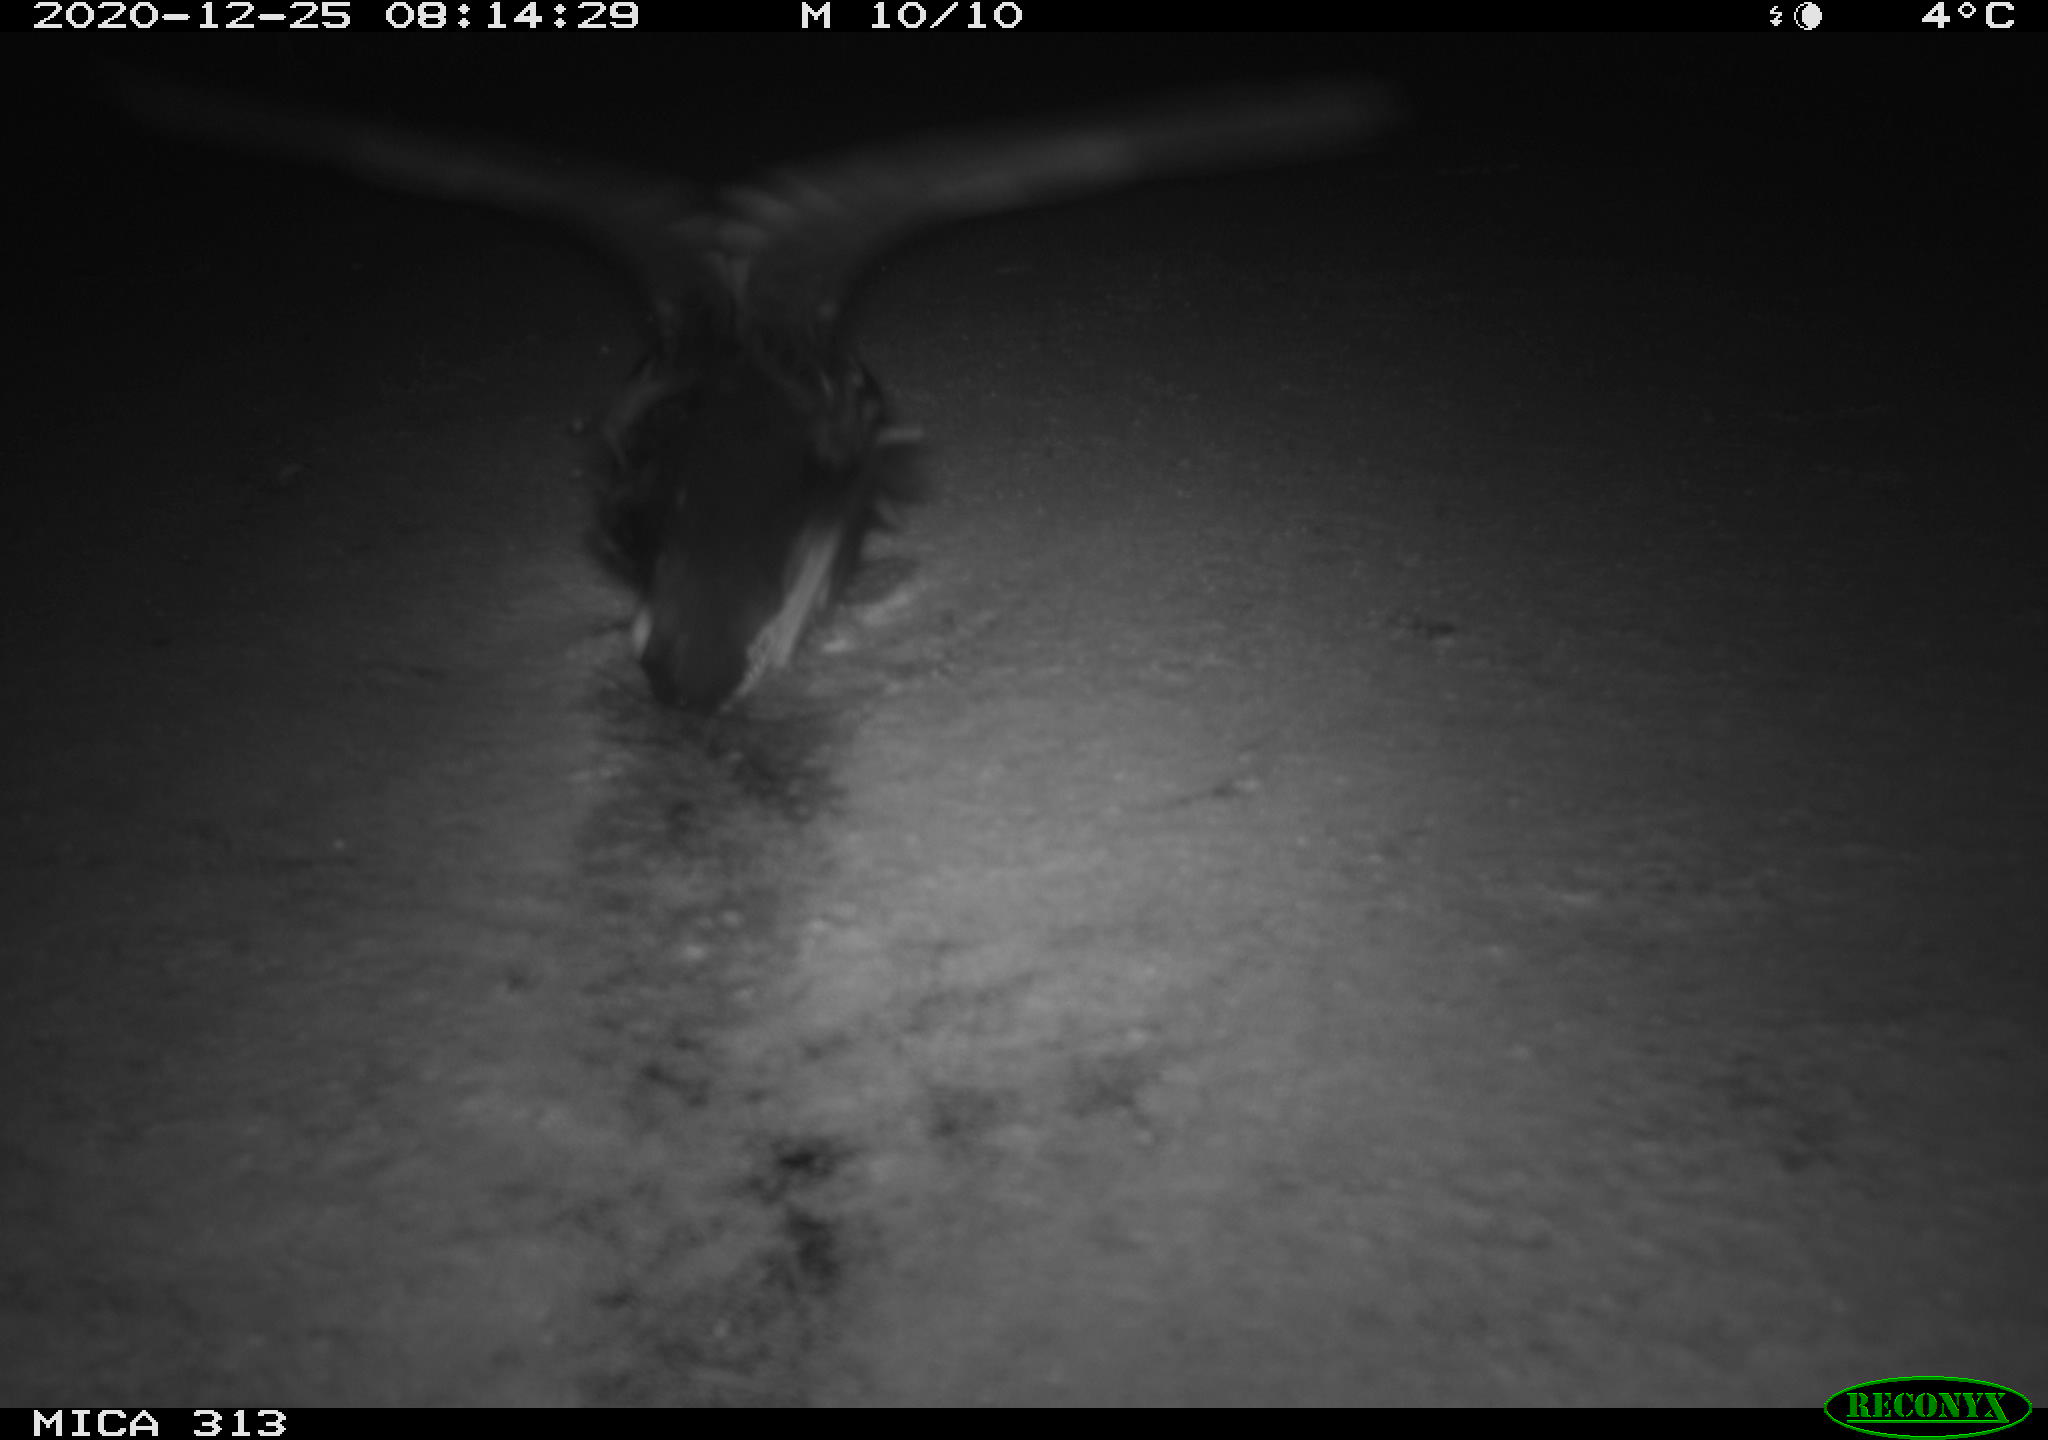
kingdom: Animalia
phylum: Chordata
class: Aves
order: Gruiformes
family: Rallidae
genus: Gallinula
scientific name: Gallinula chloropus
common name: Common moorhen
